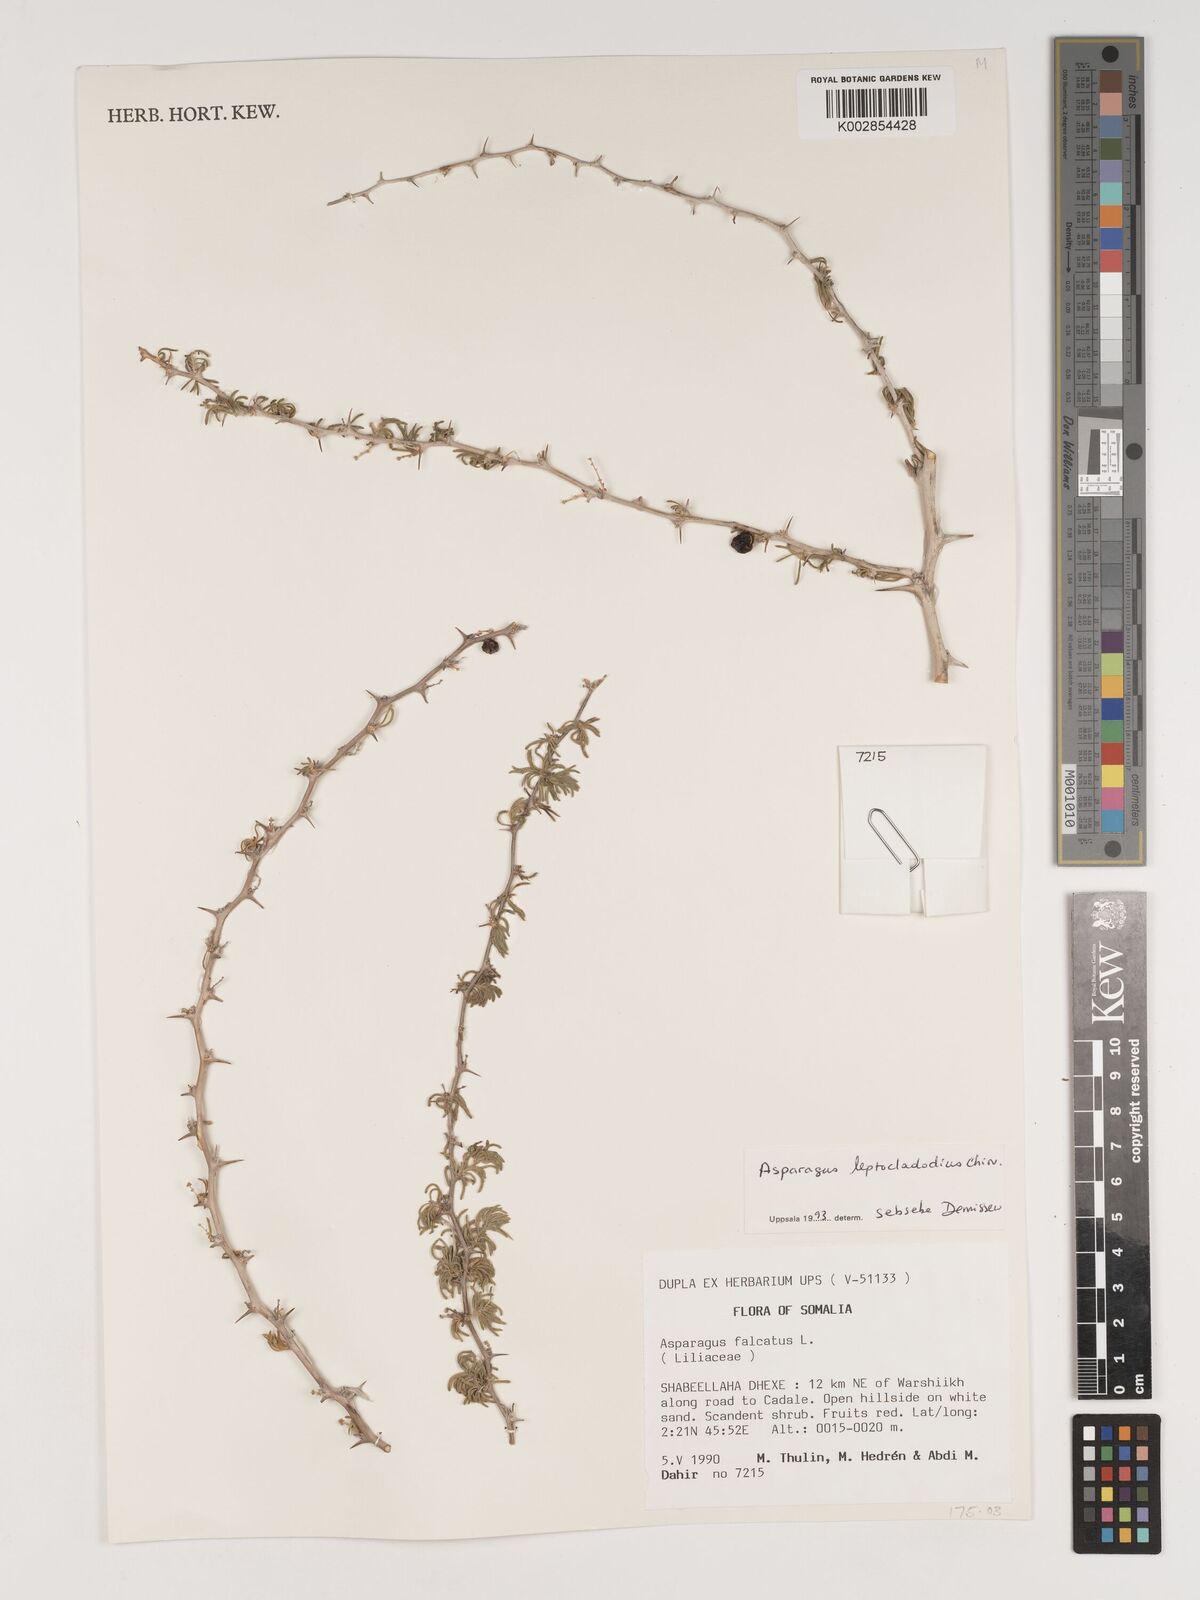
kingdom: Plantae
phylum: Tracheophyta
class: Liliopsida
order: Asparagales
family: Asparagaceae
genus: Asparagus
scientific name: Asparagus leptocladodius
